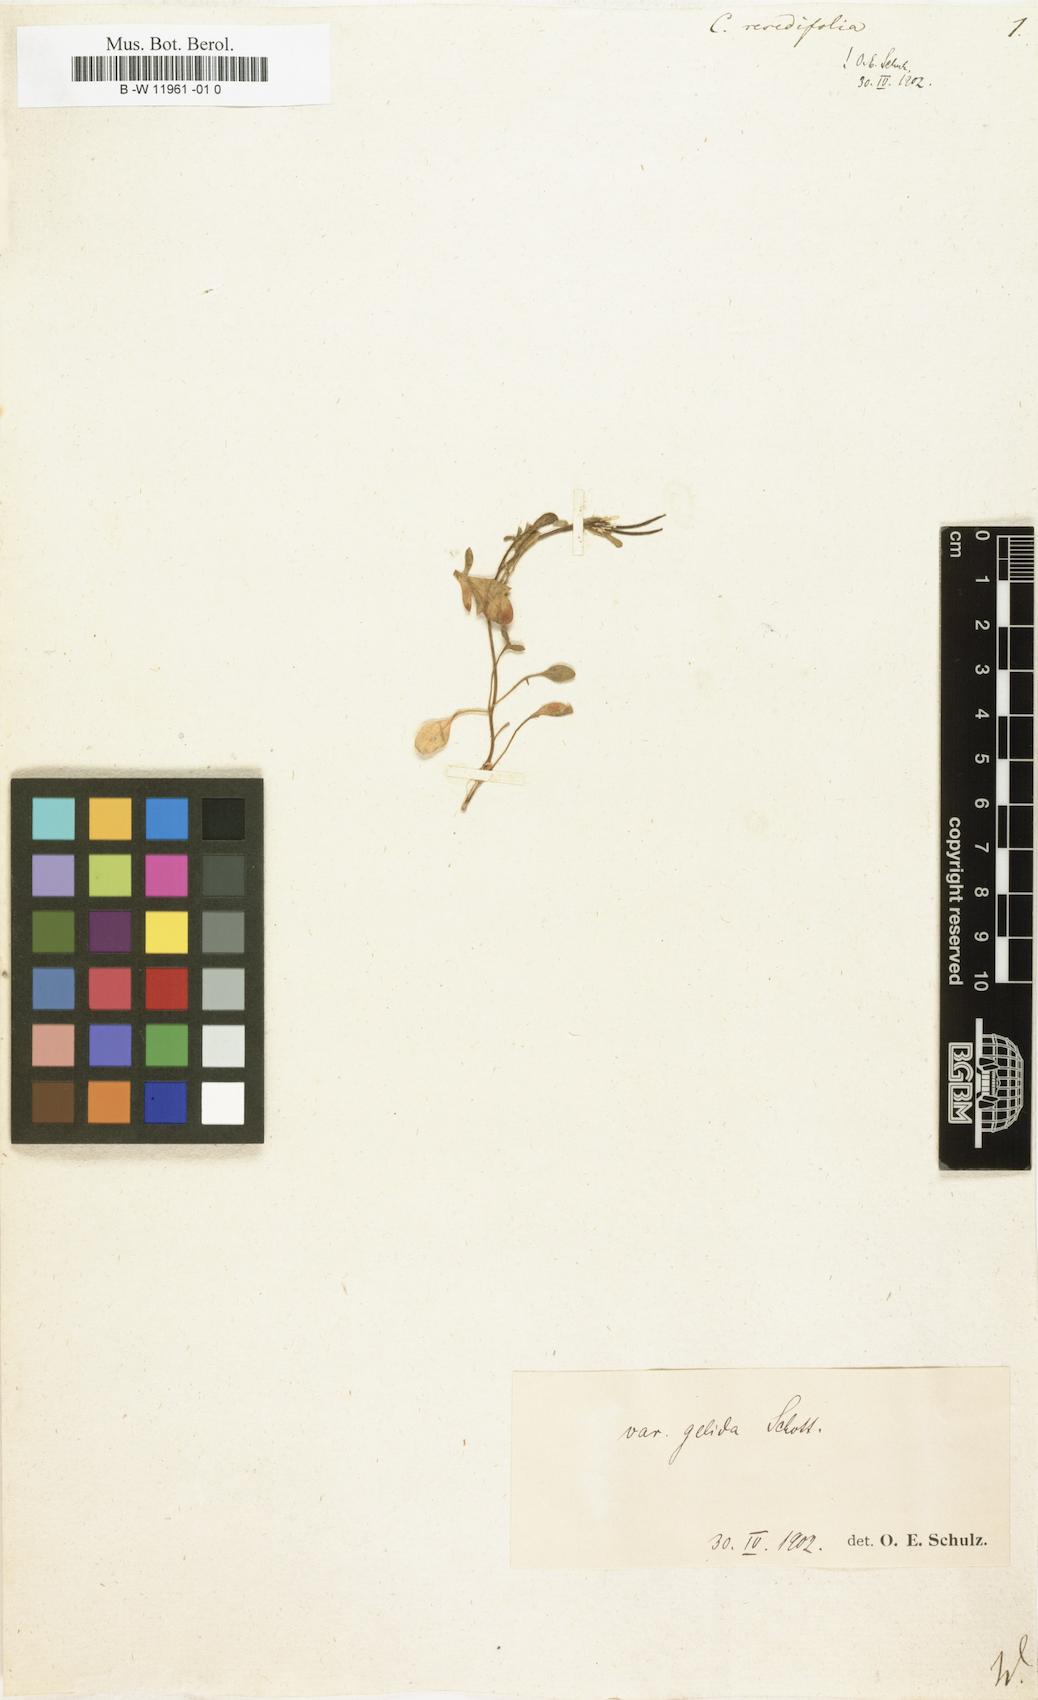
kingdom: Plantae
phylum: Tracheophyta
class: Magnoliopsida
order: Brassicales
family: Brassicaceae
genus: Cardamine
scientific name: Cardamine resedifolia
